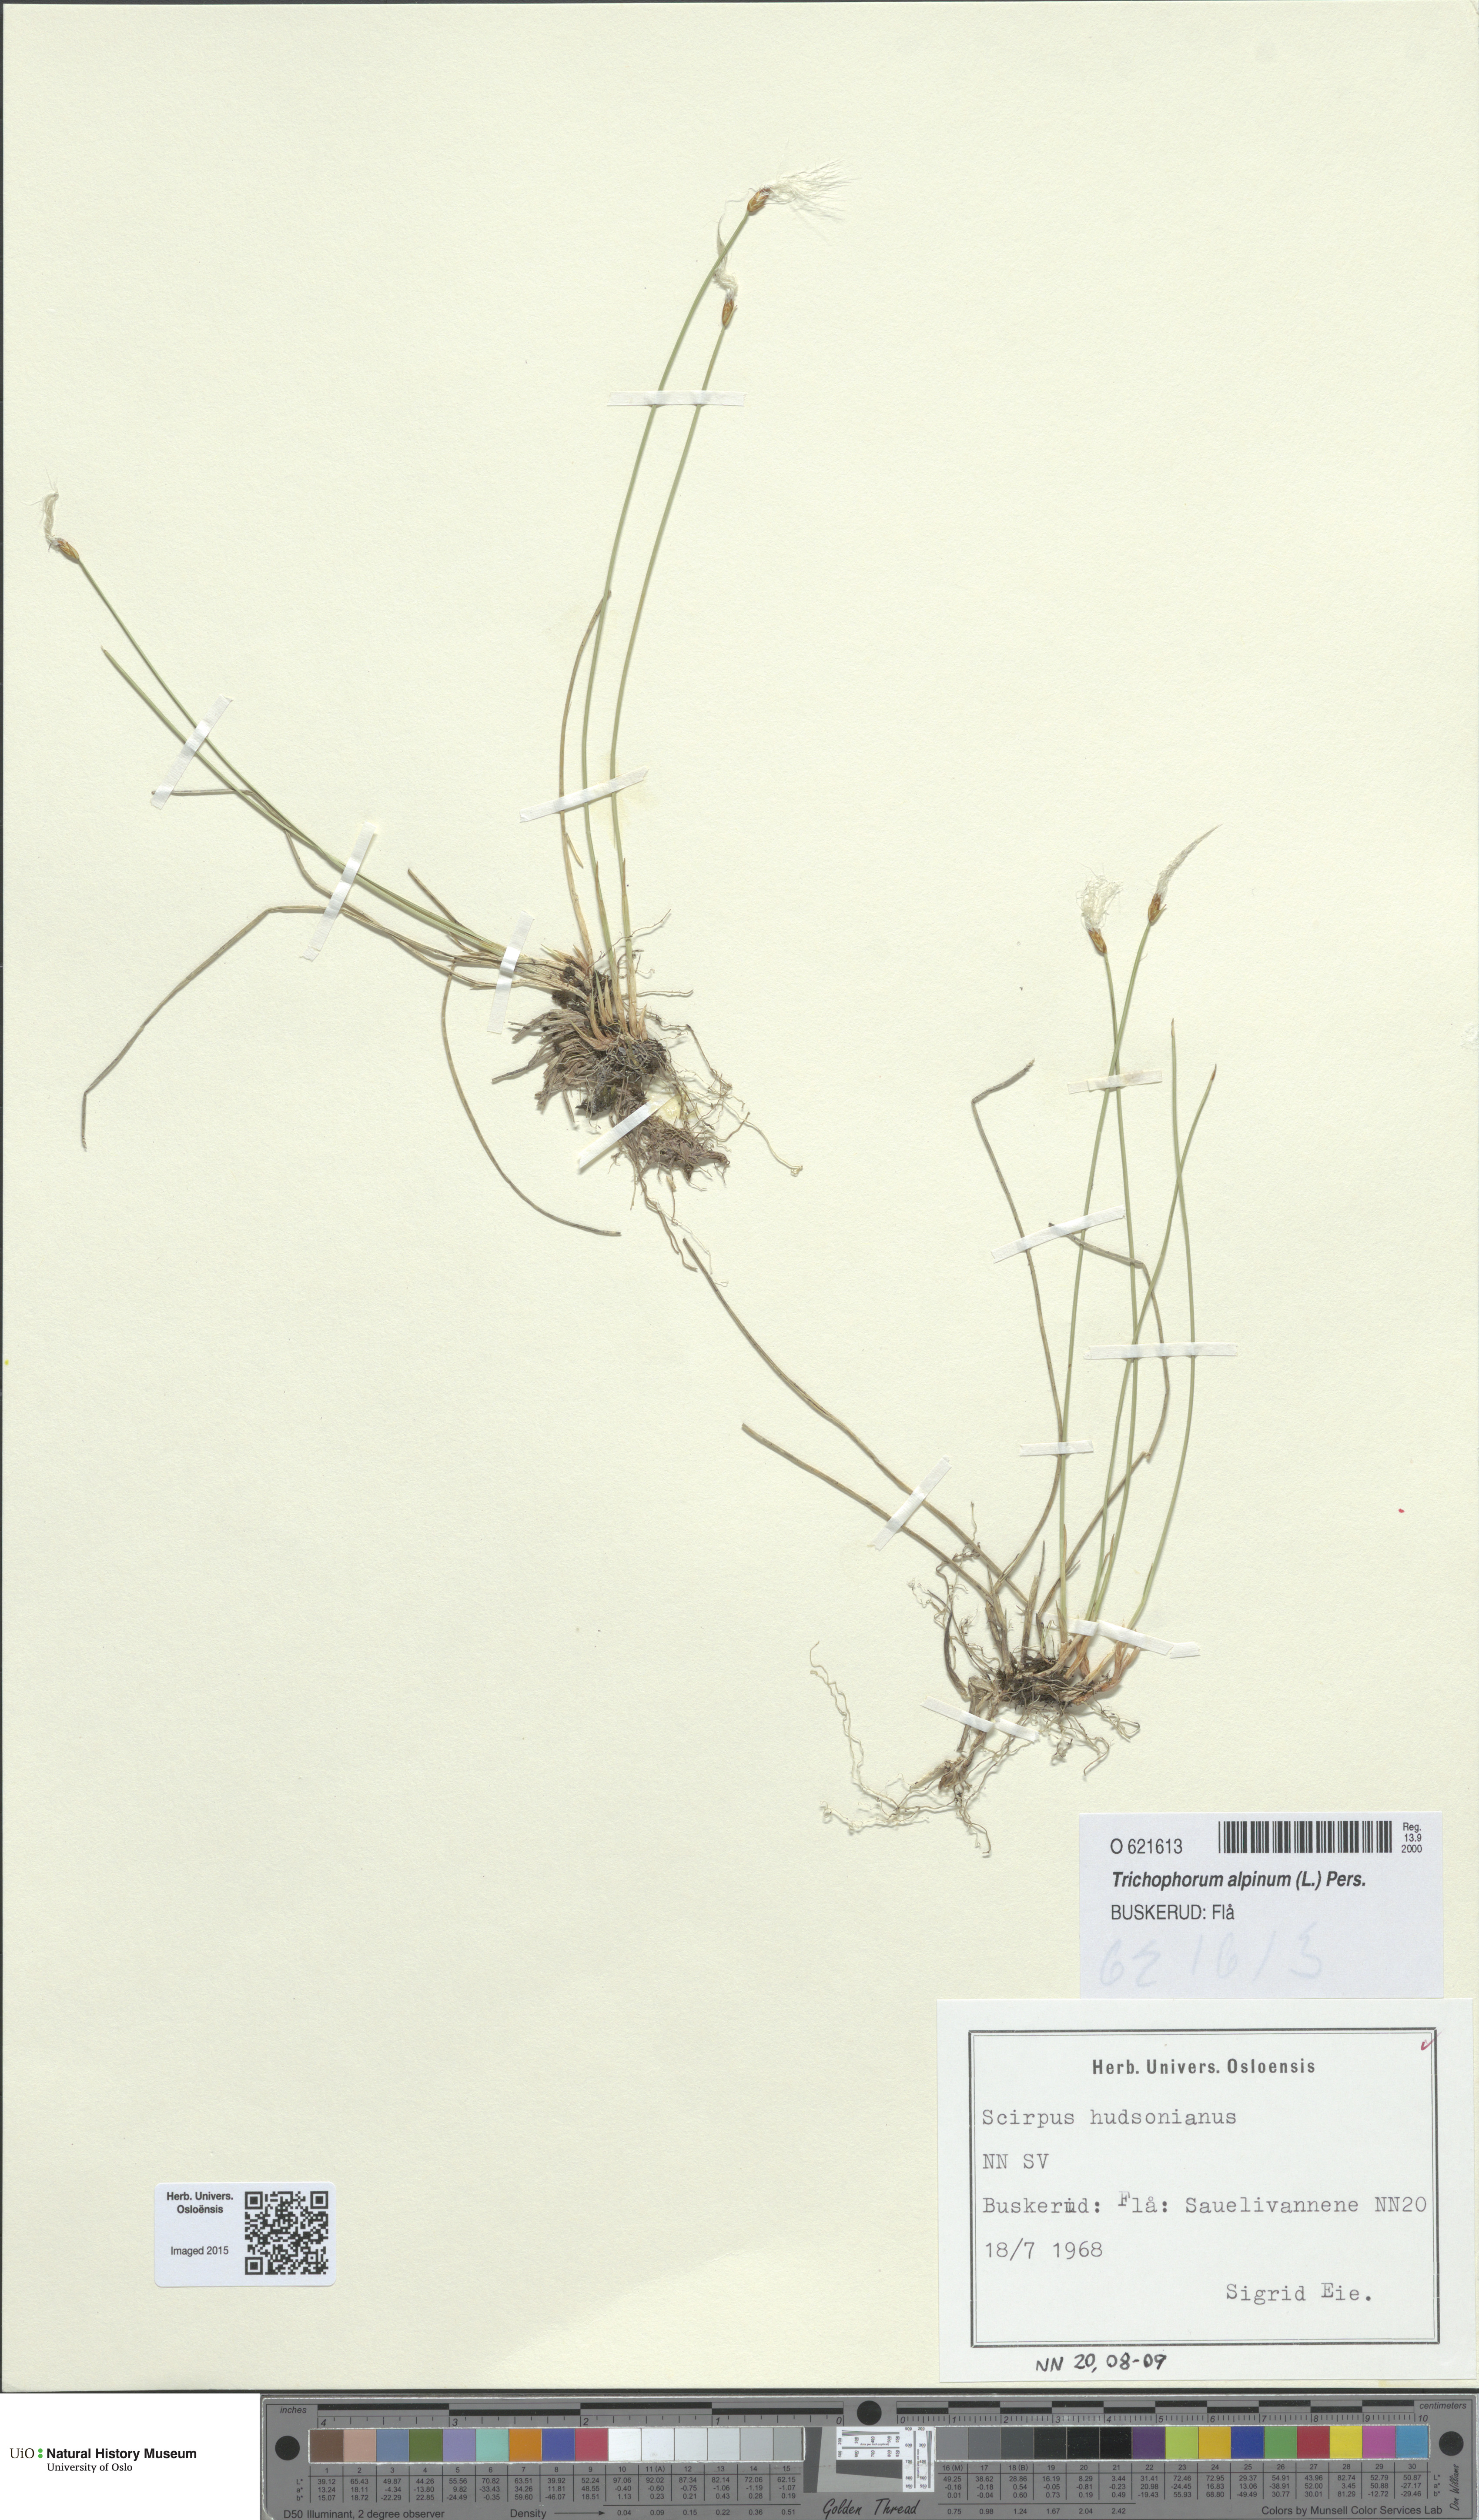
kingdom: Plantae
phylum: Tracheophyta
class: Liliopsida
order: Poales
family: Cyperaceae
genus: Trichophorum
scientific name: Trichophorum alpinum
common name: Alpine bulrush
